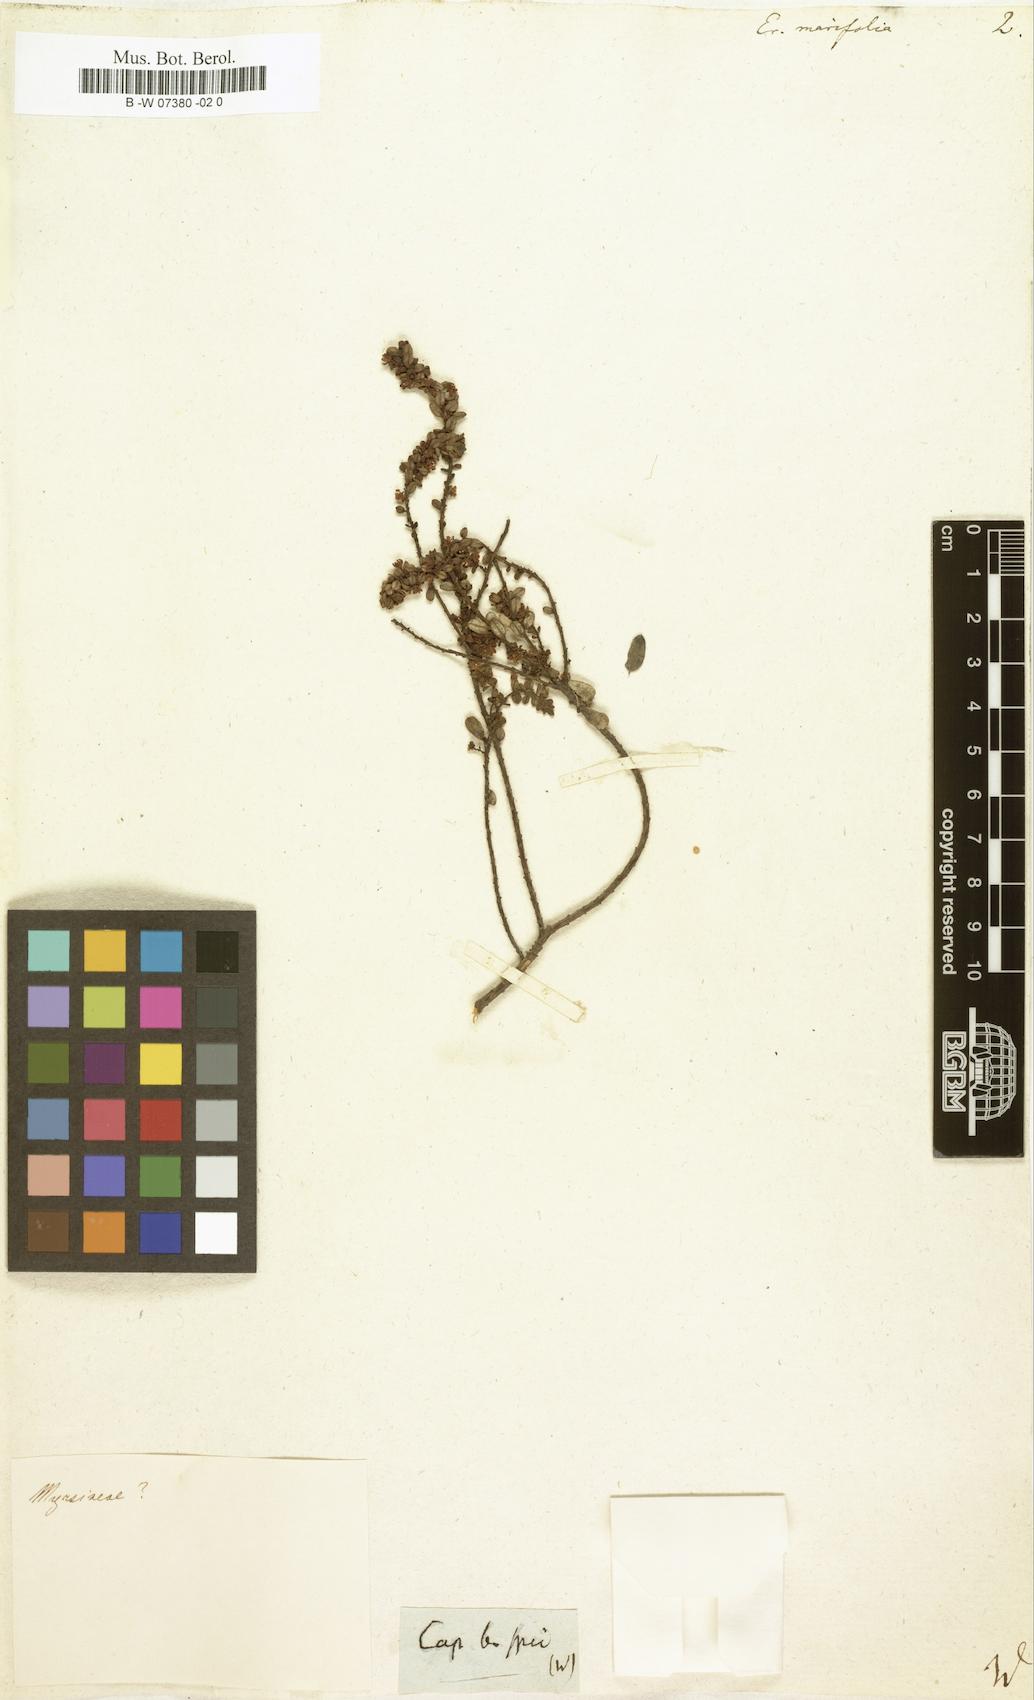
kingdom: Plantae
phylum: Tracheophyta
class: Magnoliopsida
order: Ericales
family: Ericaceae
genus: Erica
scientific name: Erica marifolia
